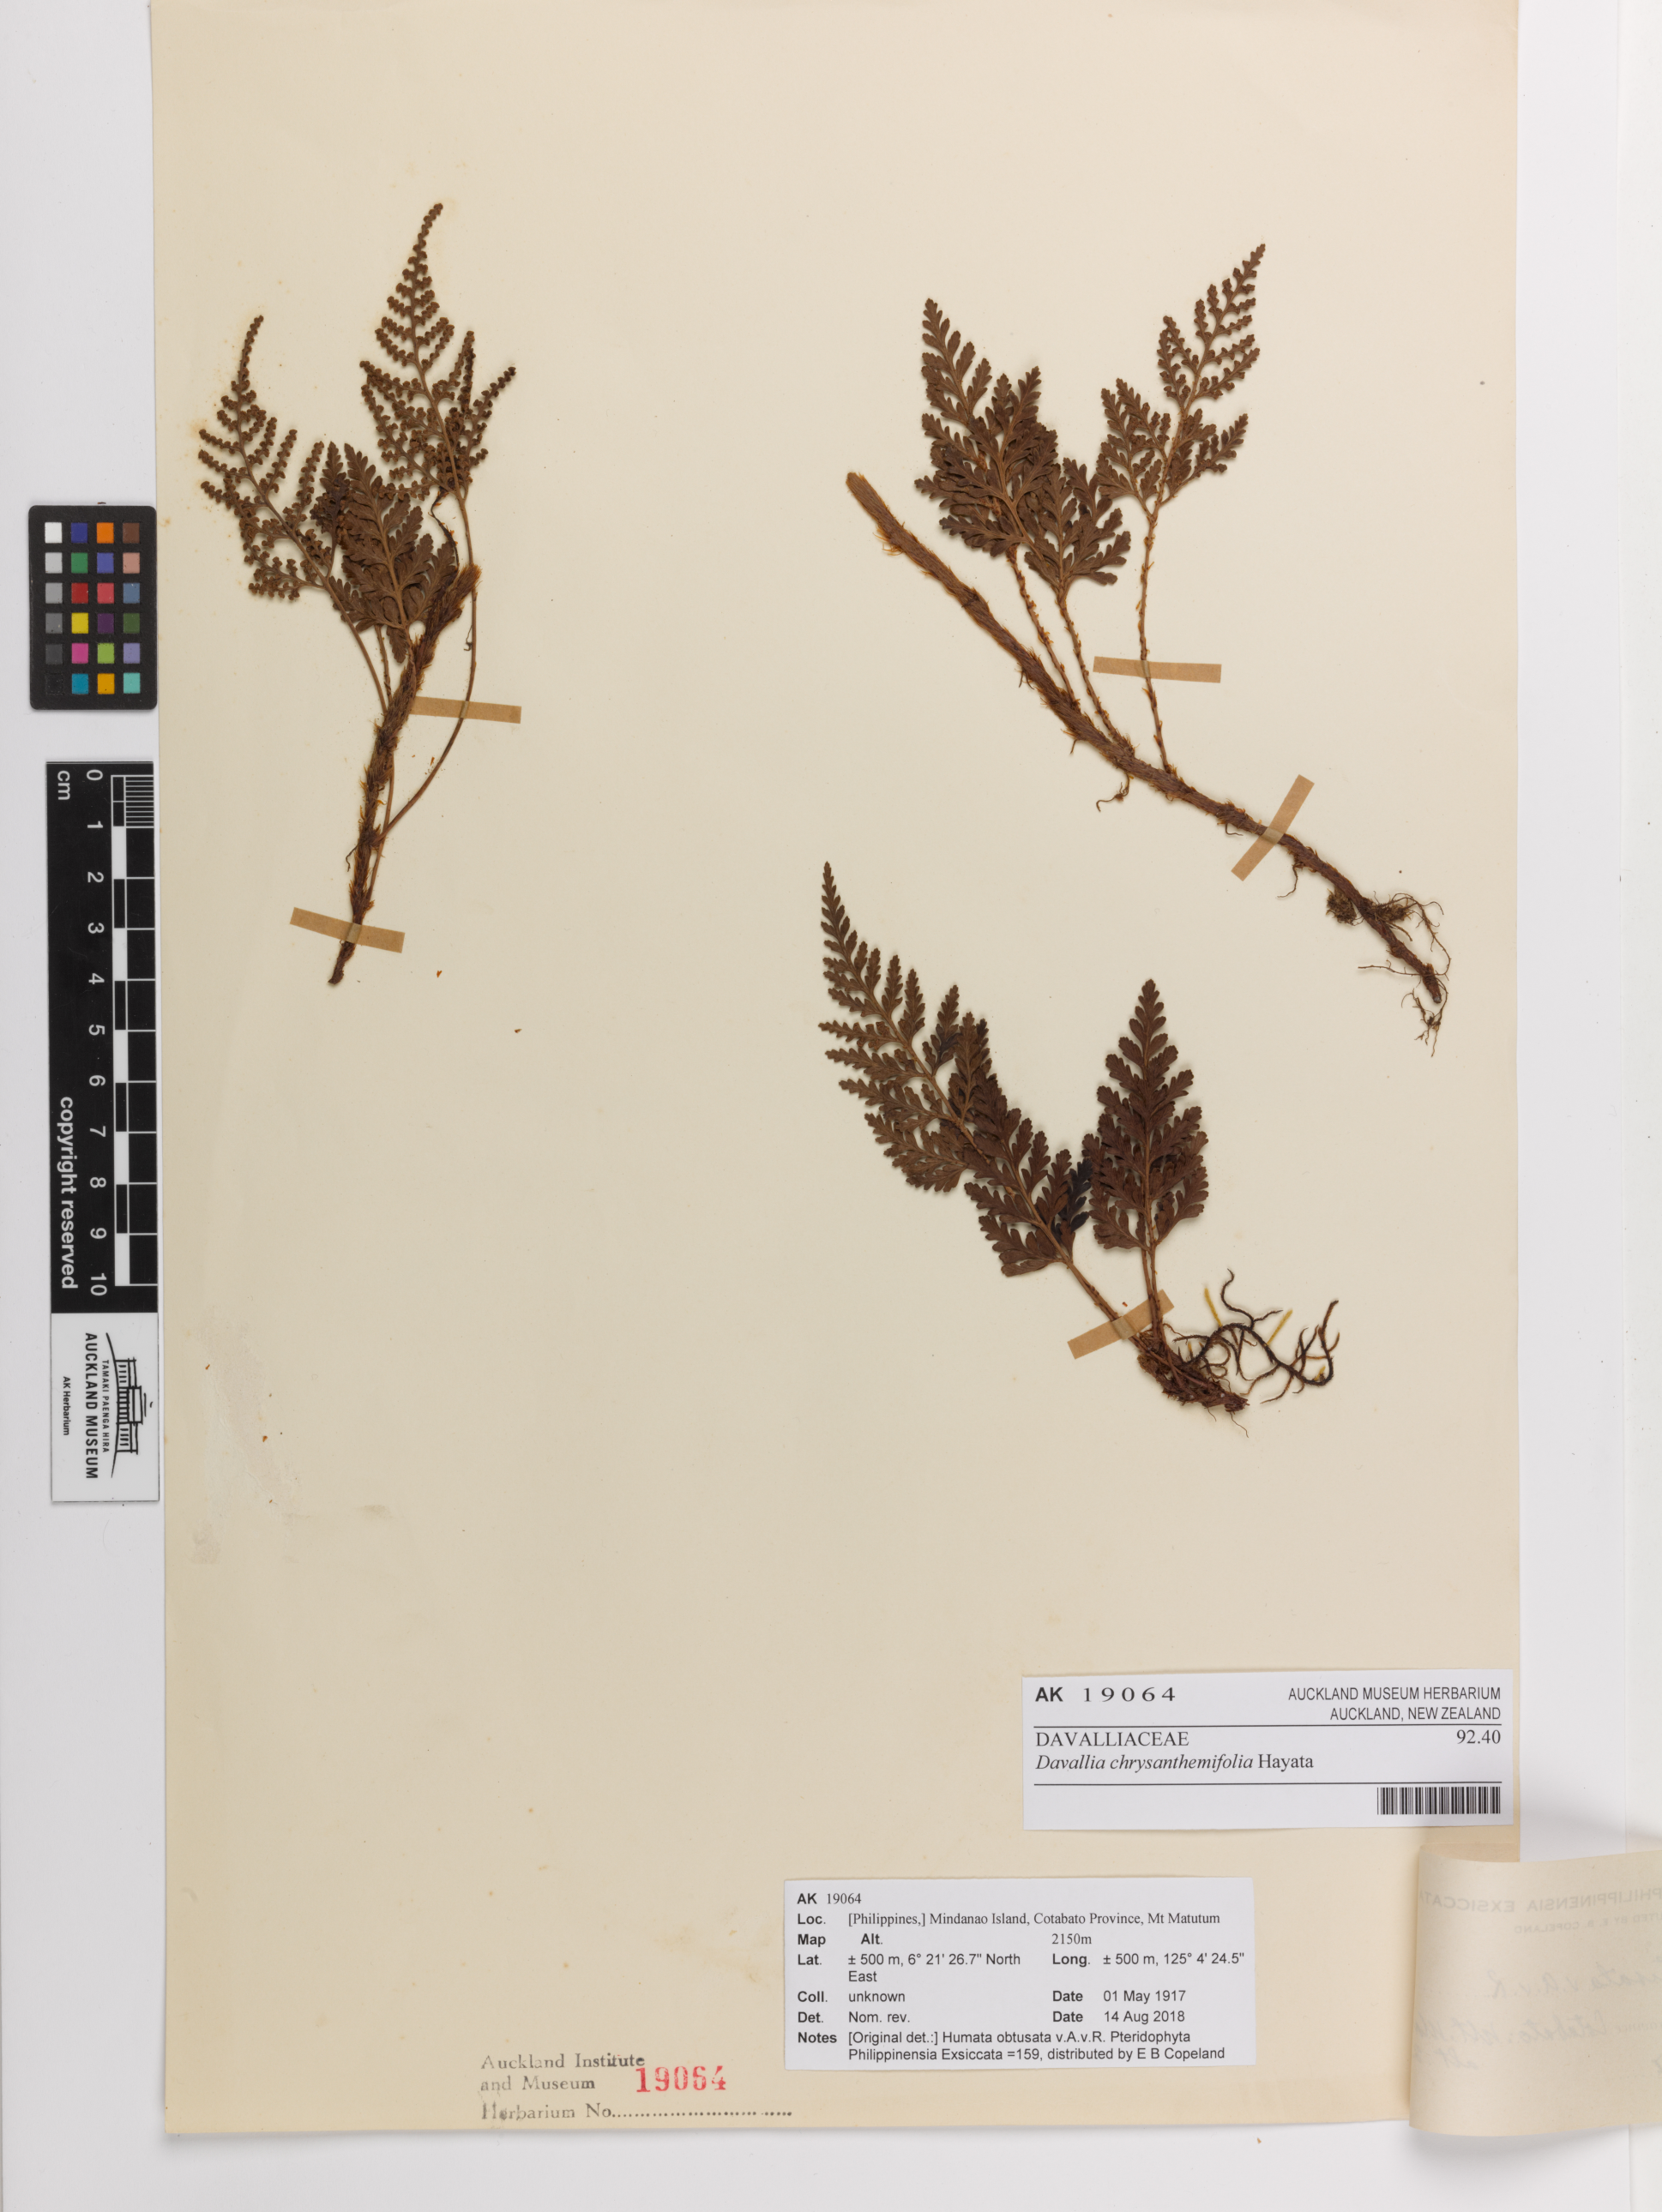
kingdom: Plantae
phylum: Tracheophyta
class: Polypodiopsida
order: Polypodiales
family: Davalliaceae
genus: Davallia
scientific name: Davallia chrysanthemifolia
